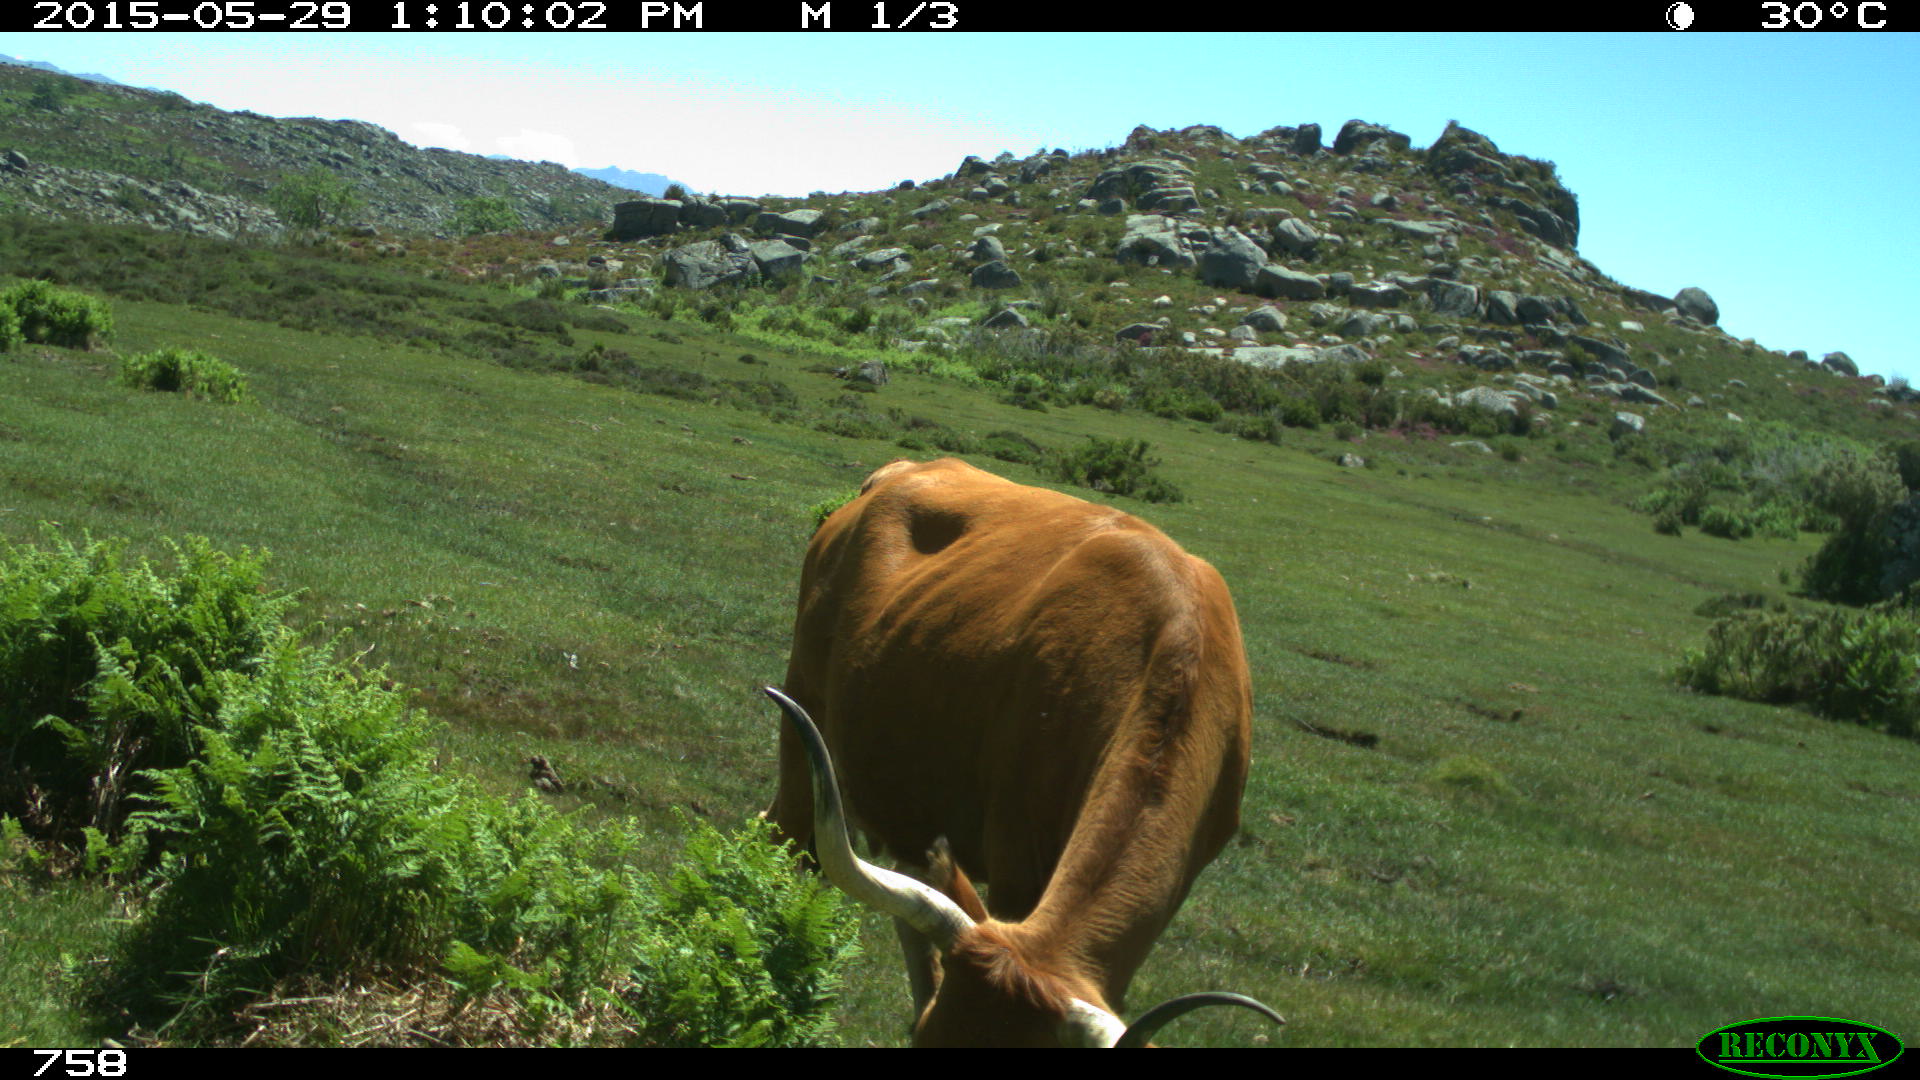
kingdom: Animalia
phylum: Chordata
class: Mammalia
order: Artiodactyla
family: Bovidae
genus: Bos
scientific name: Bos taurus
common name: Domesticated cattle
